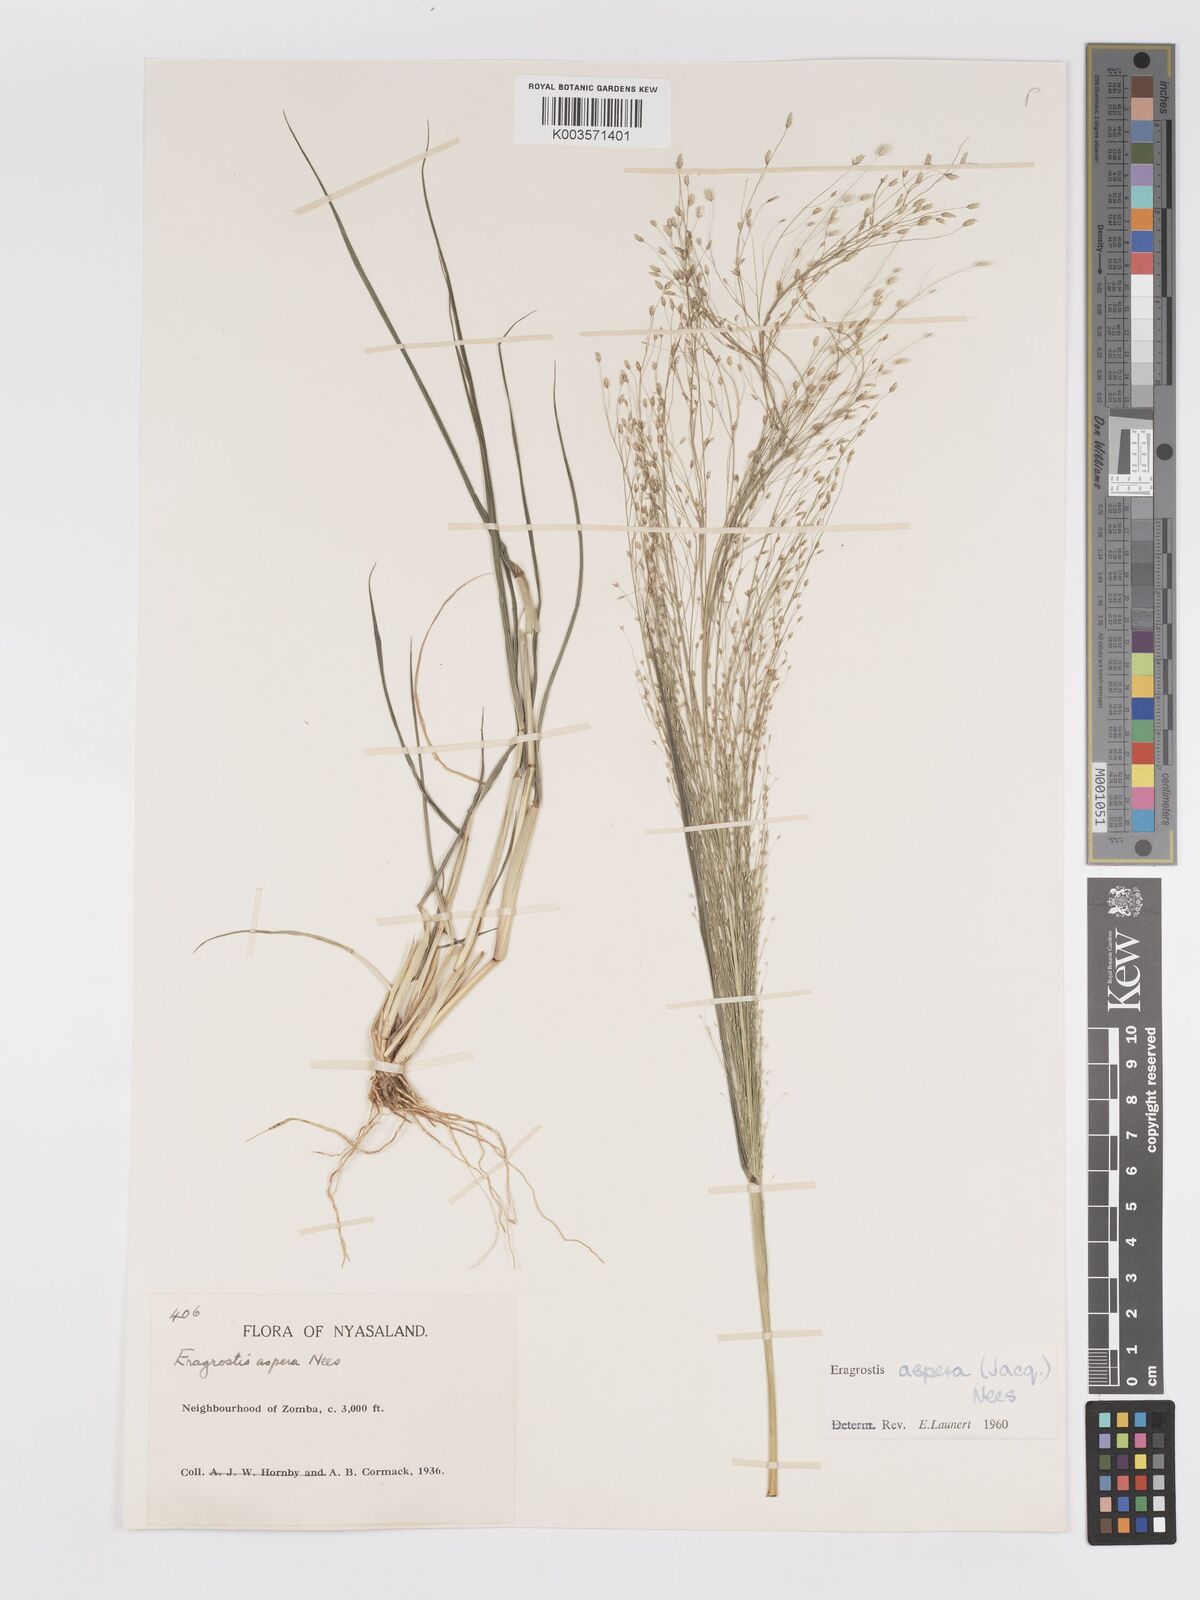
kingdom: Plantae
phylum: Tracheophyta
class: Liliopsida
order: Poales
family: Poaceae
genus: Eragrostis
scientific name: Eragrostis aspera
